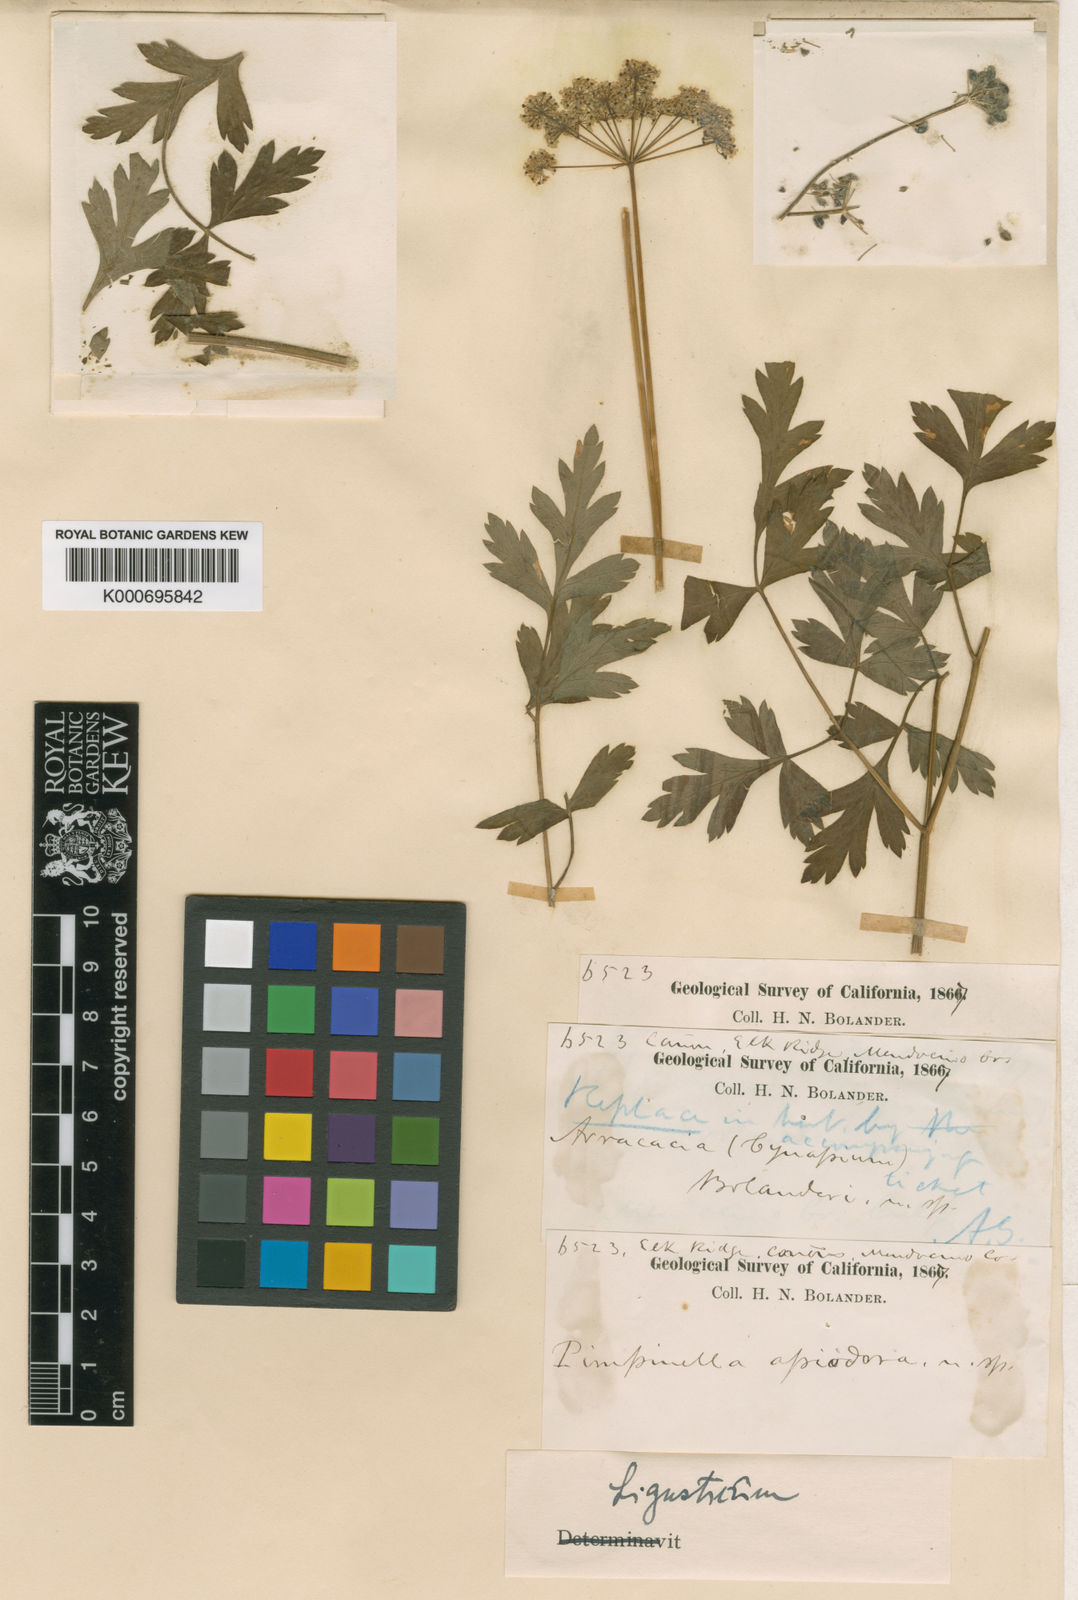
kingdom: Plantae
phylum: Tracheophyta
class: Magnoliopsida
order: Apiales
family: Apiaceae
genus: Lomatium
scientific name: Lomatium dissectum
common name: Lomatium
